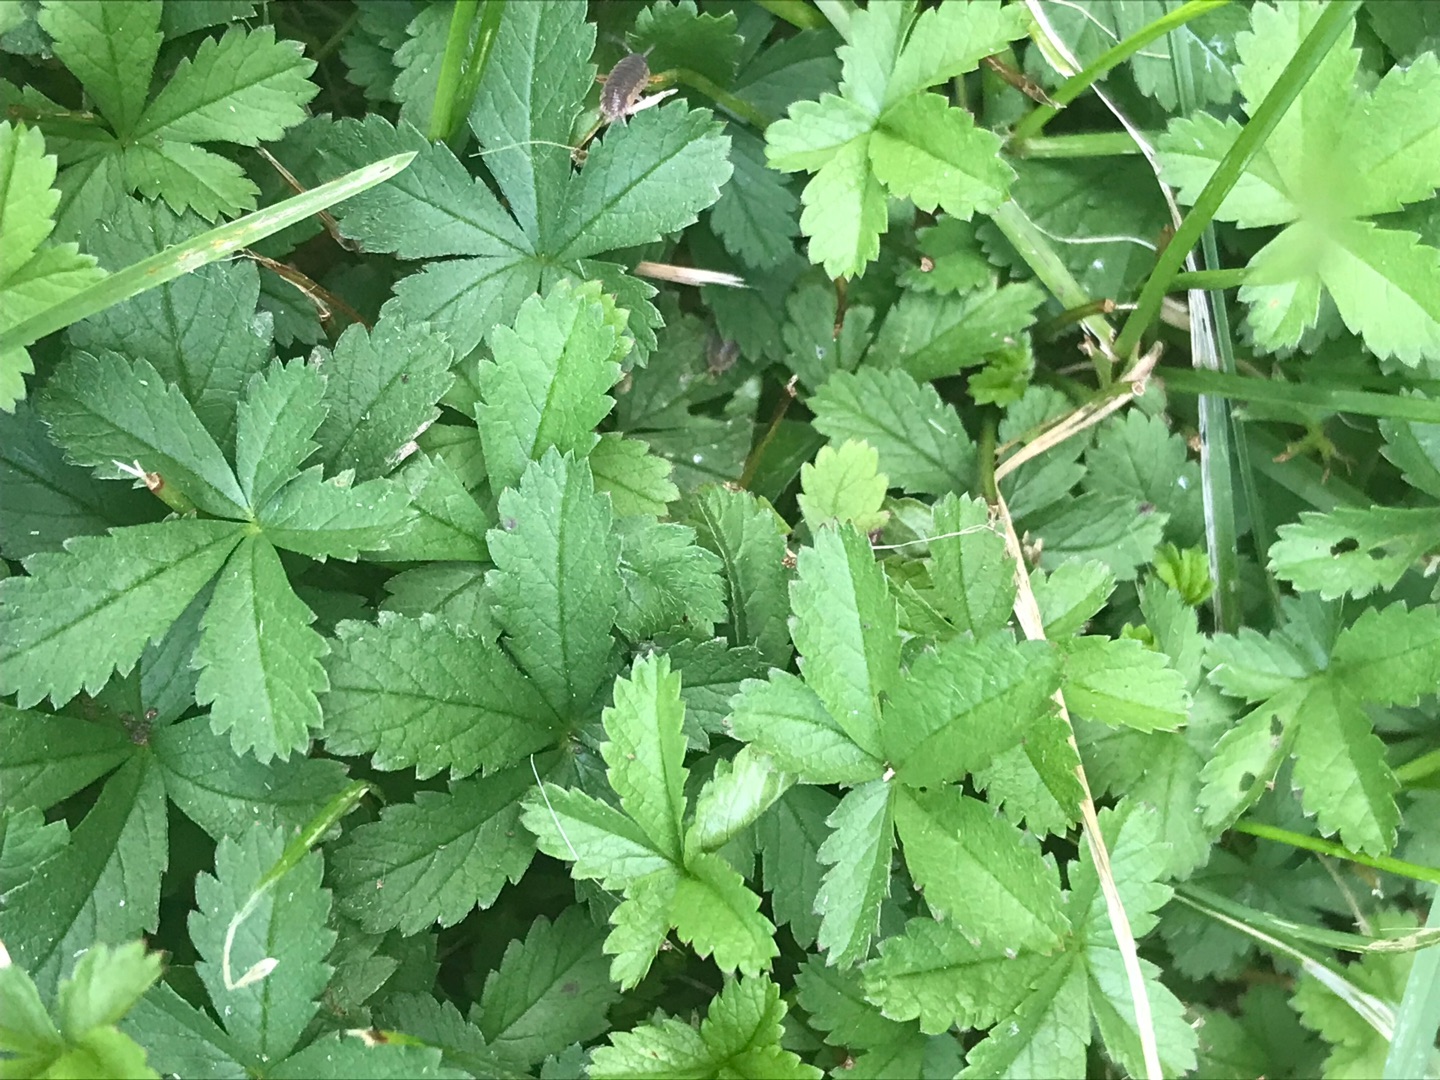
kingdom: Plantae
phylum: Tracheophyta
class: Magnoliopsida
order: Rosales
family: Rosaceae
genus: Potentilla
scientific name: Potentilla reptans
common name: Krybende potentil
